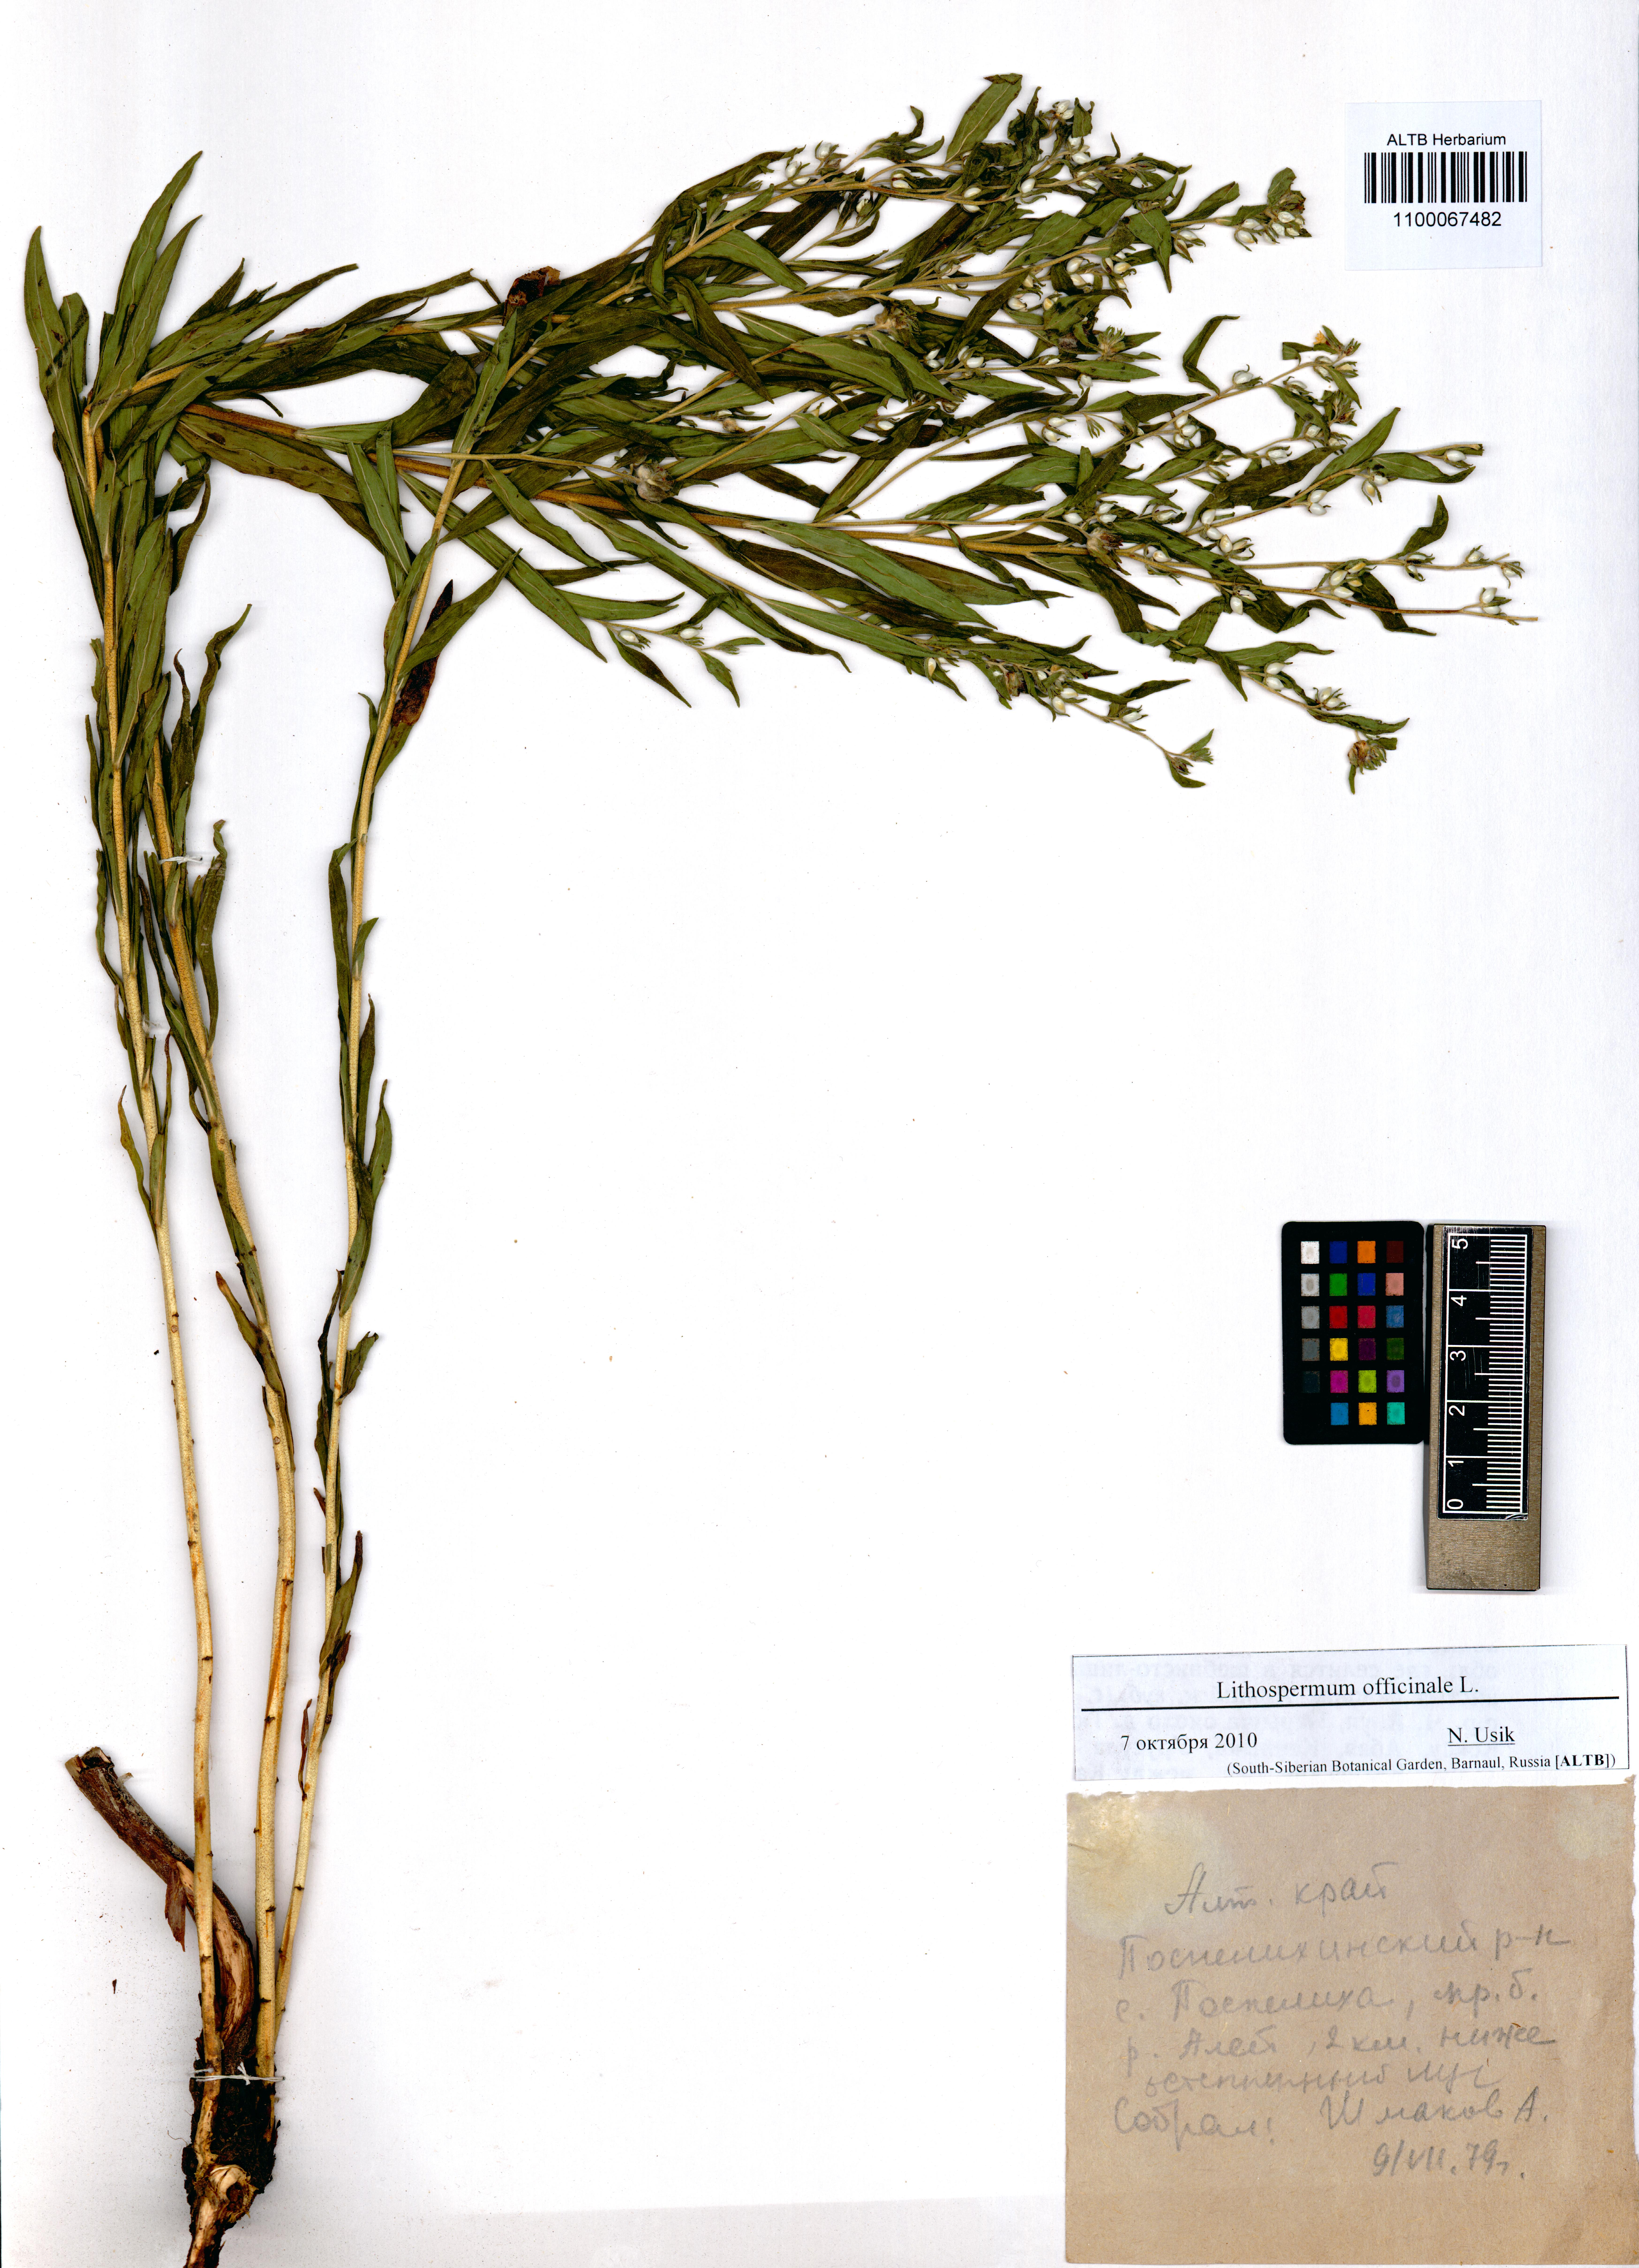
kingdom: Plantae
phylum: Tracheophyta
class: Magnoliopsida
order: Boraginales
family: Boraginaceae
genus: Lithospermum
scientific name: Lithospermum officinale
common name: Common gromwell
